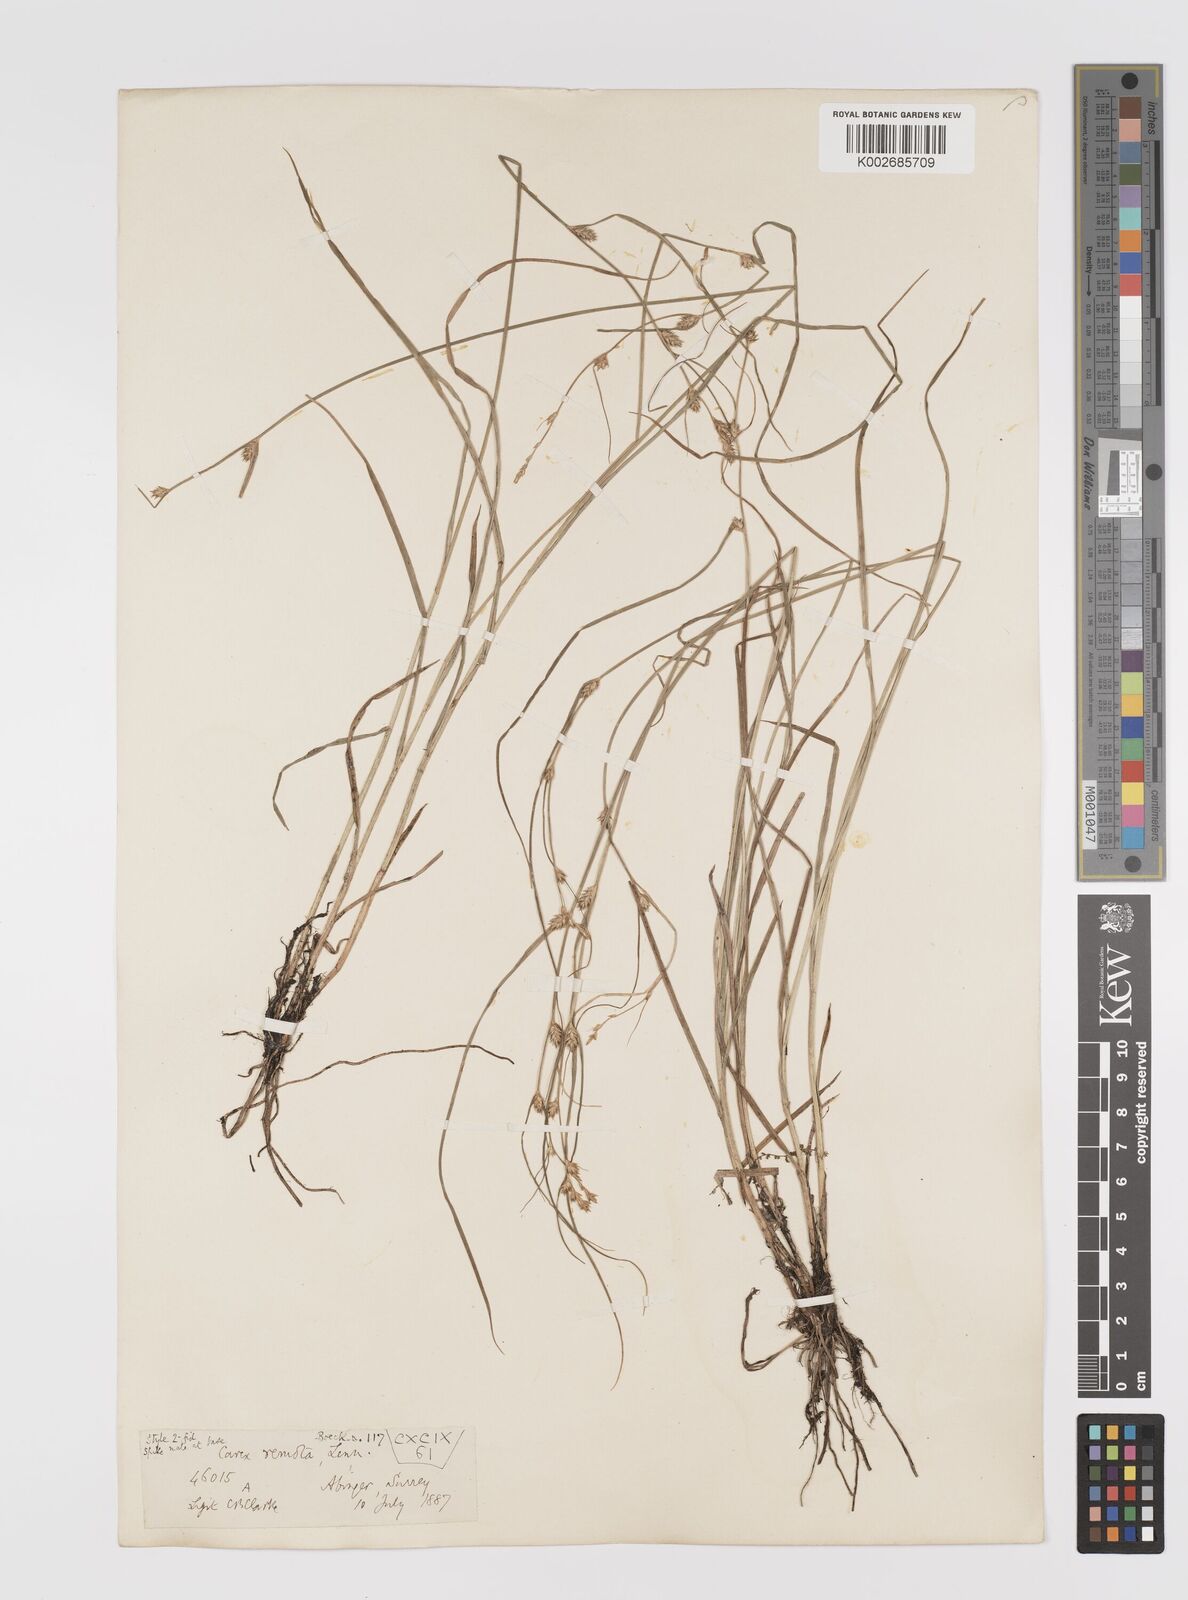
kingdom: Plantae
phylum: Tracheophyta
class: Liliopsida
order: Poales
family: Cyperaceae
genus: Carex
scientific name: Carex remota
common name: Remote sedge
